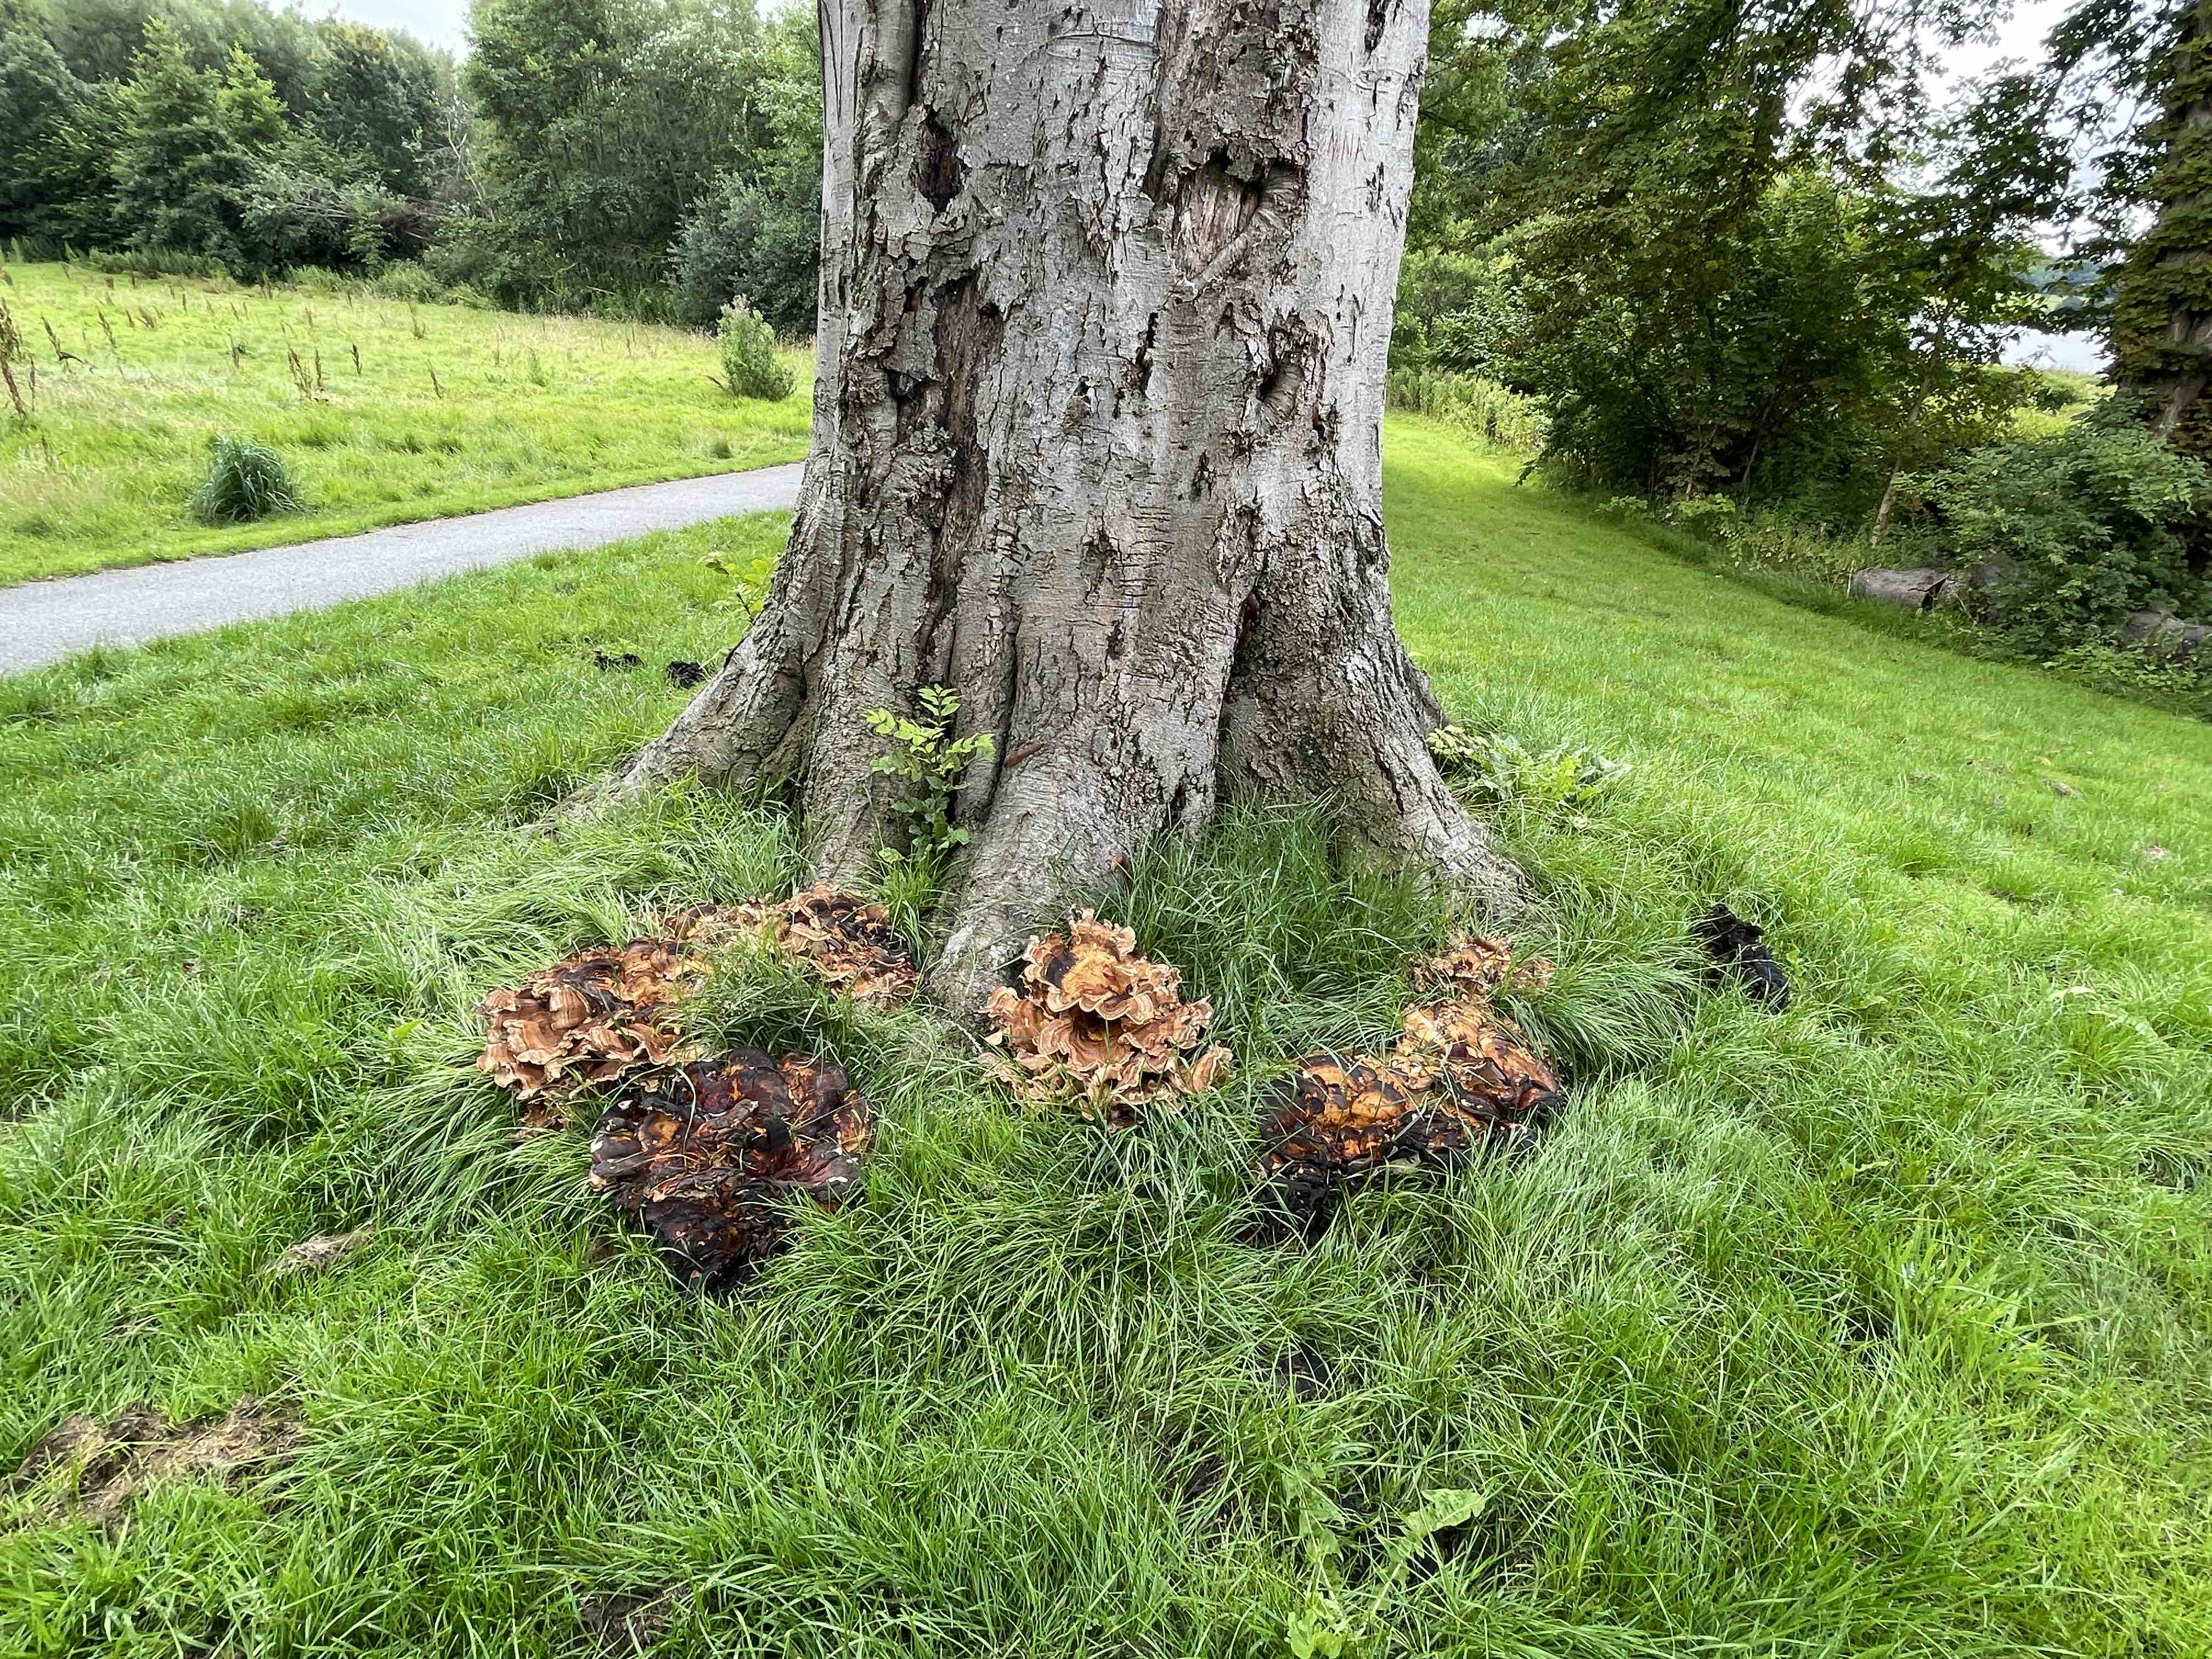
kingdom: Fungi
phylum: Basidiomycota
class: Agaricomycetes
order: Polyporales
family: Meripilaceae
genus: Meripilus
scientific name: Meripilus giganteus
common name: kæmpeporesvamp
